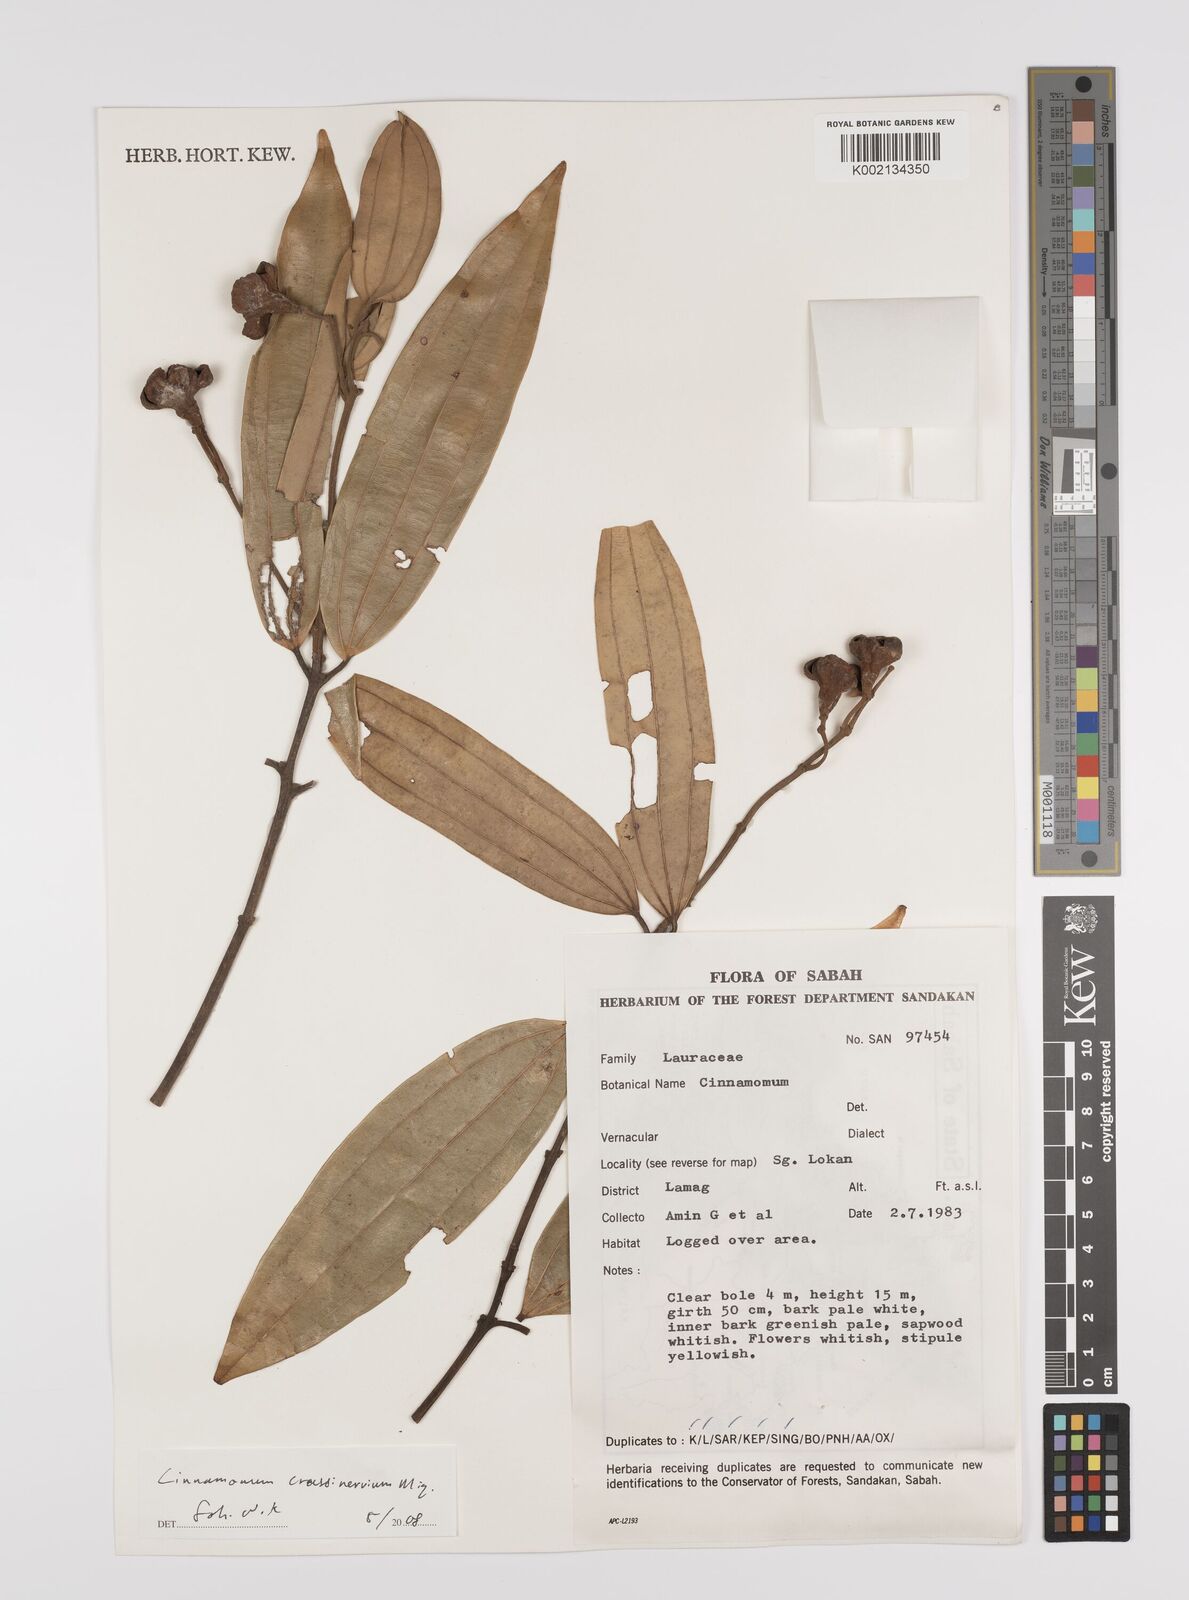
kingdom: Plantae
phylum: Tracheophyta
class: Magnoliopsida
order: Laurales
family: Lauraceae
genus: Cinnamomum
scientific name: Cinnamomum crassinervium
